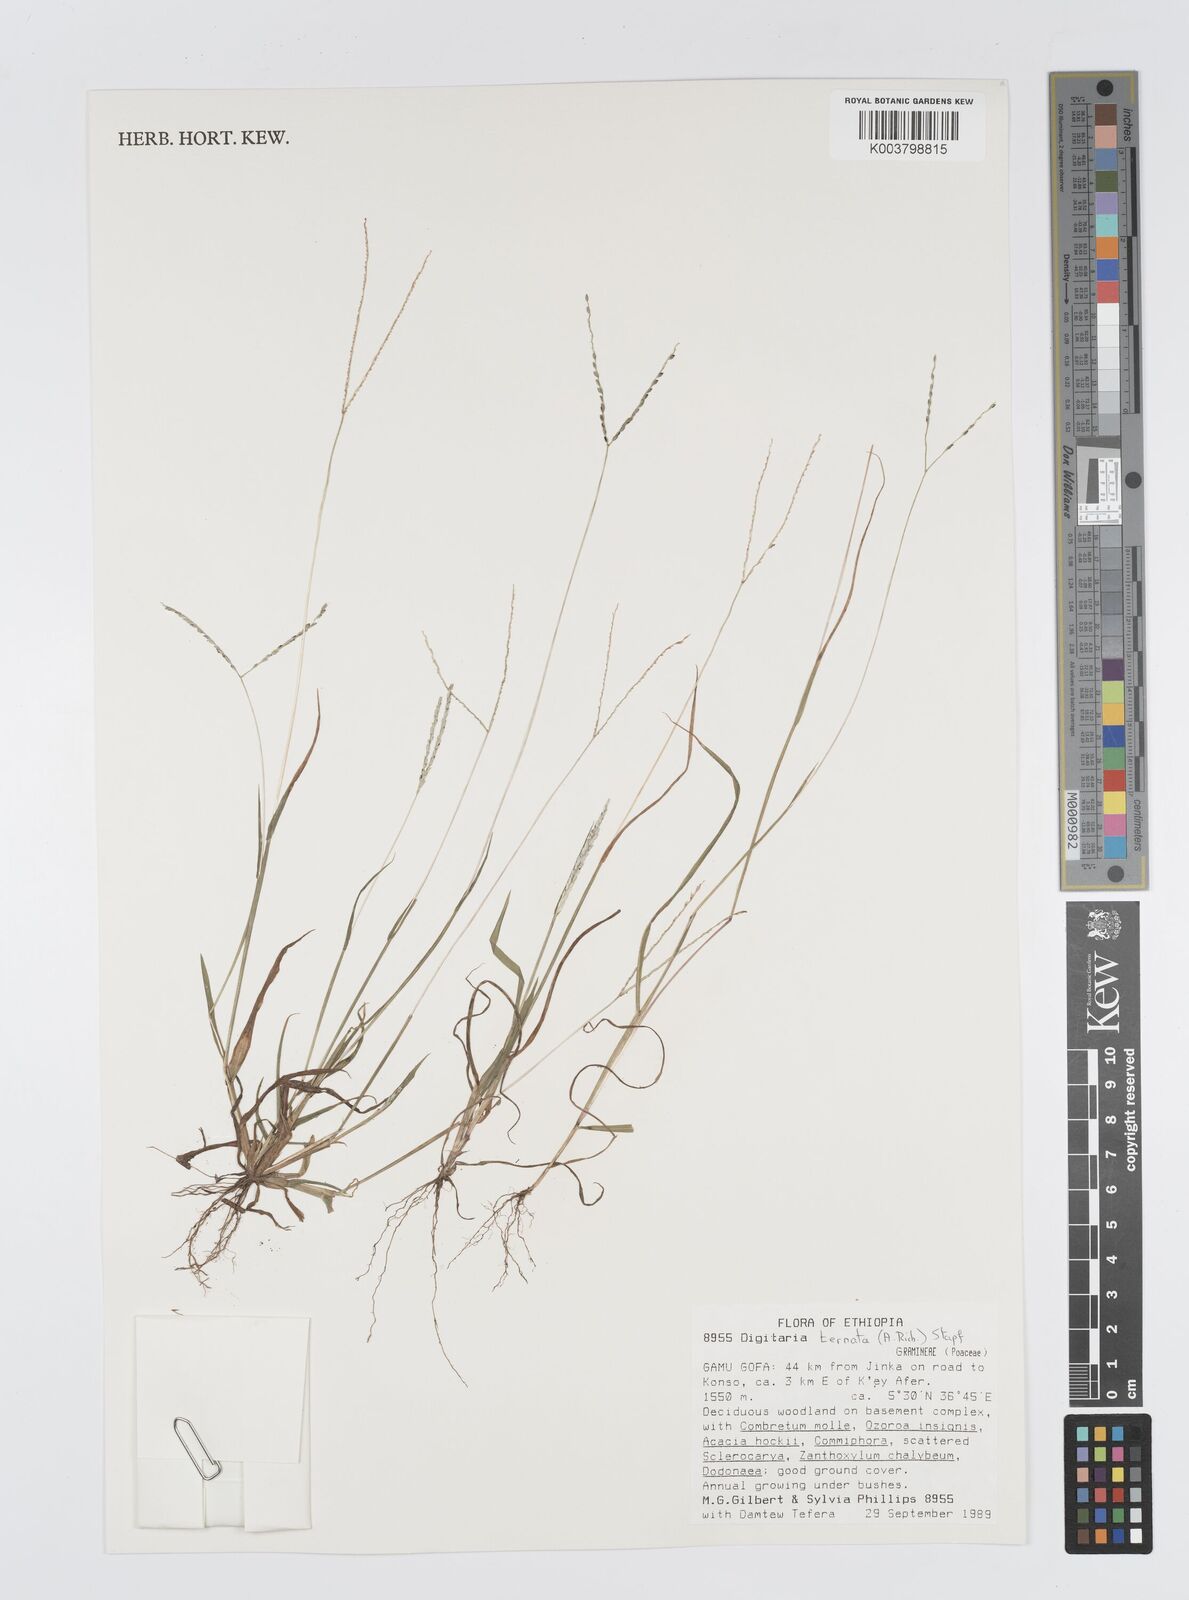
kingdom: Plantae
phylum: Tracheophyta
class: Liliopsida
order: Poales
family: Poaceae
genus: Digitaria
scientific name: Digitaria ternata
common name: Blackseed crabgrass
